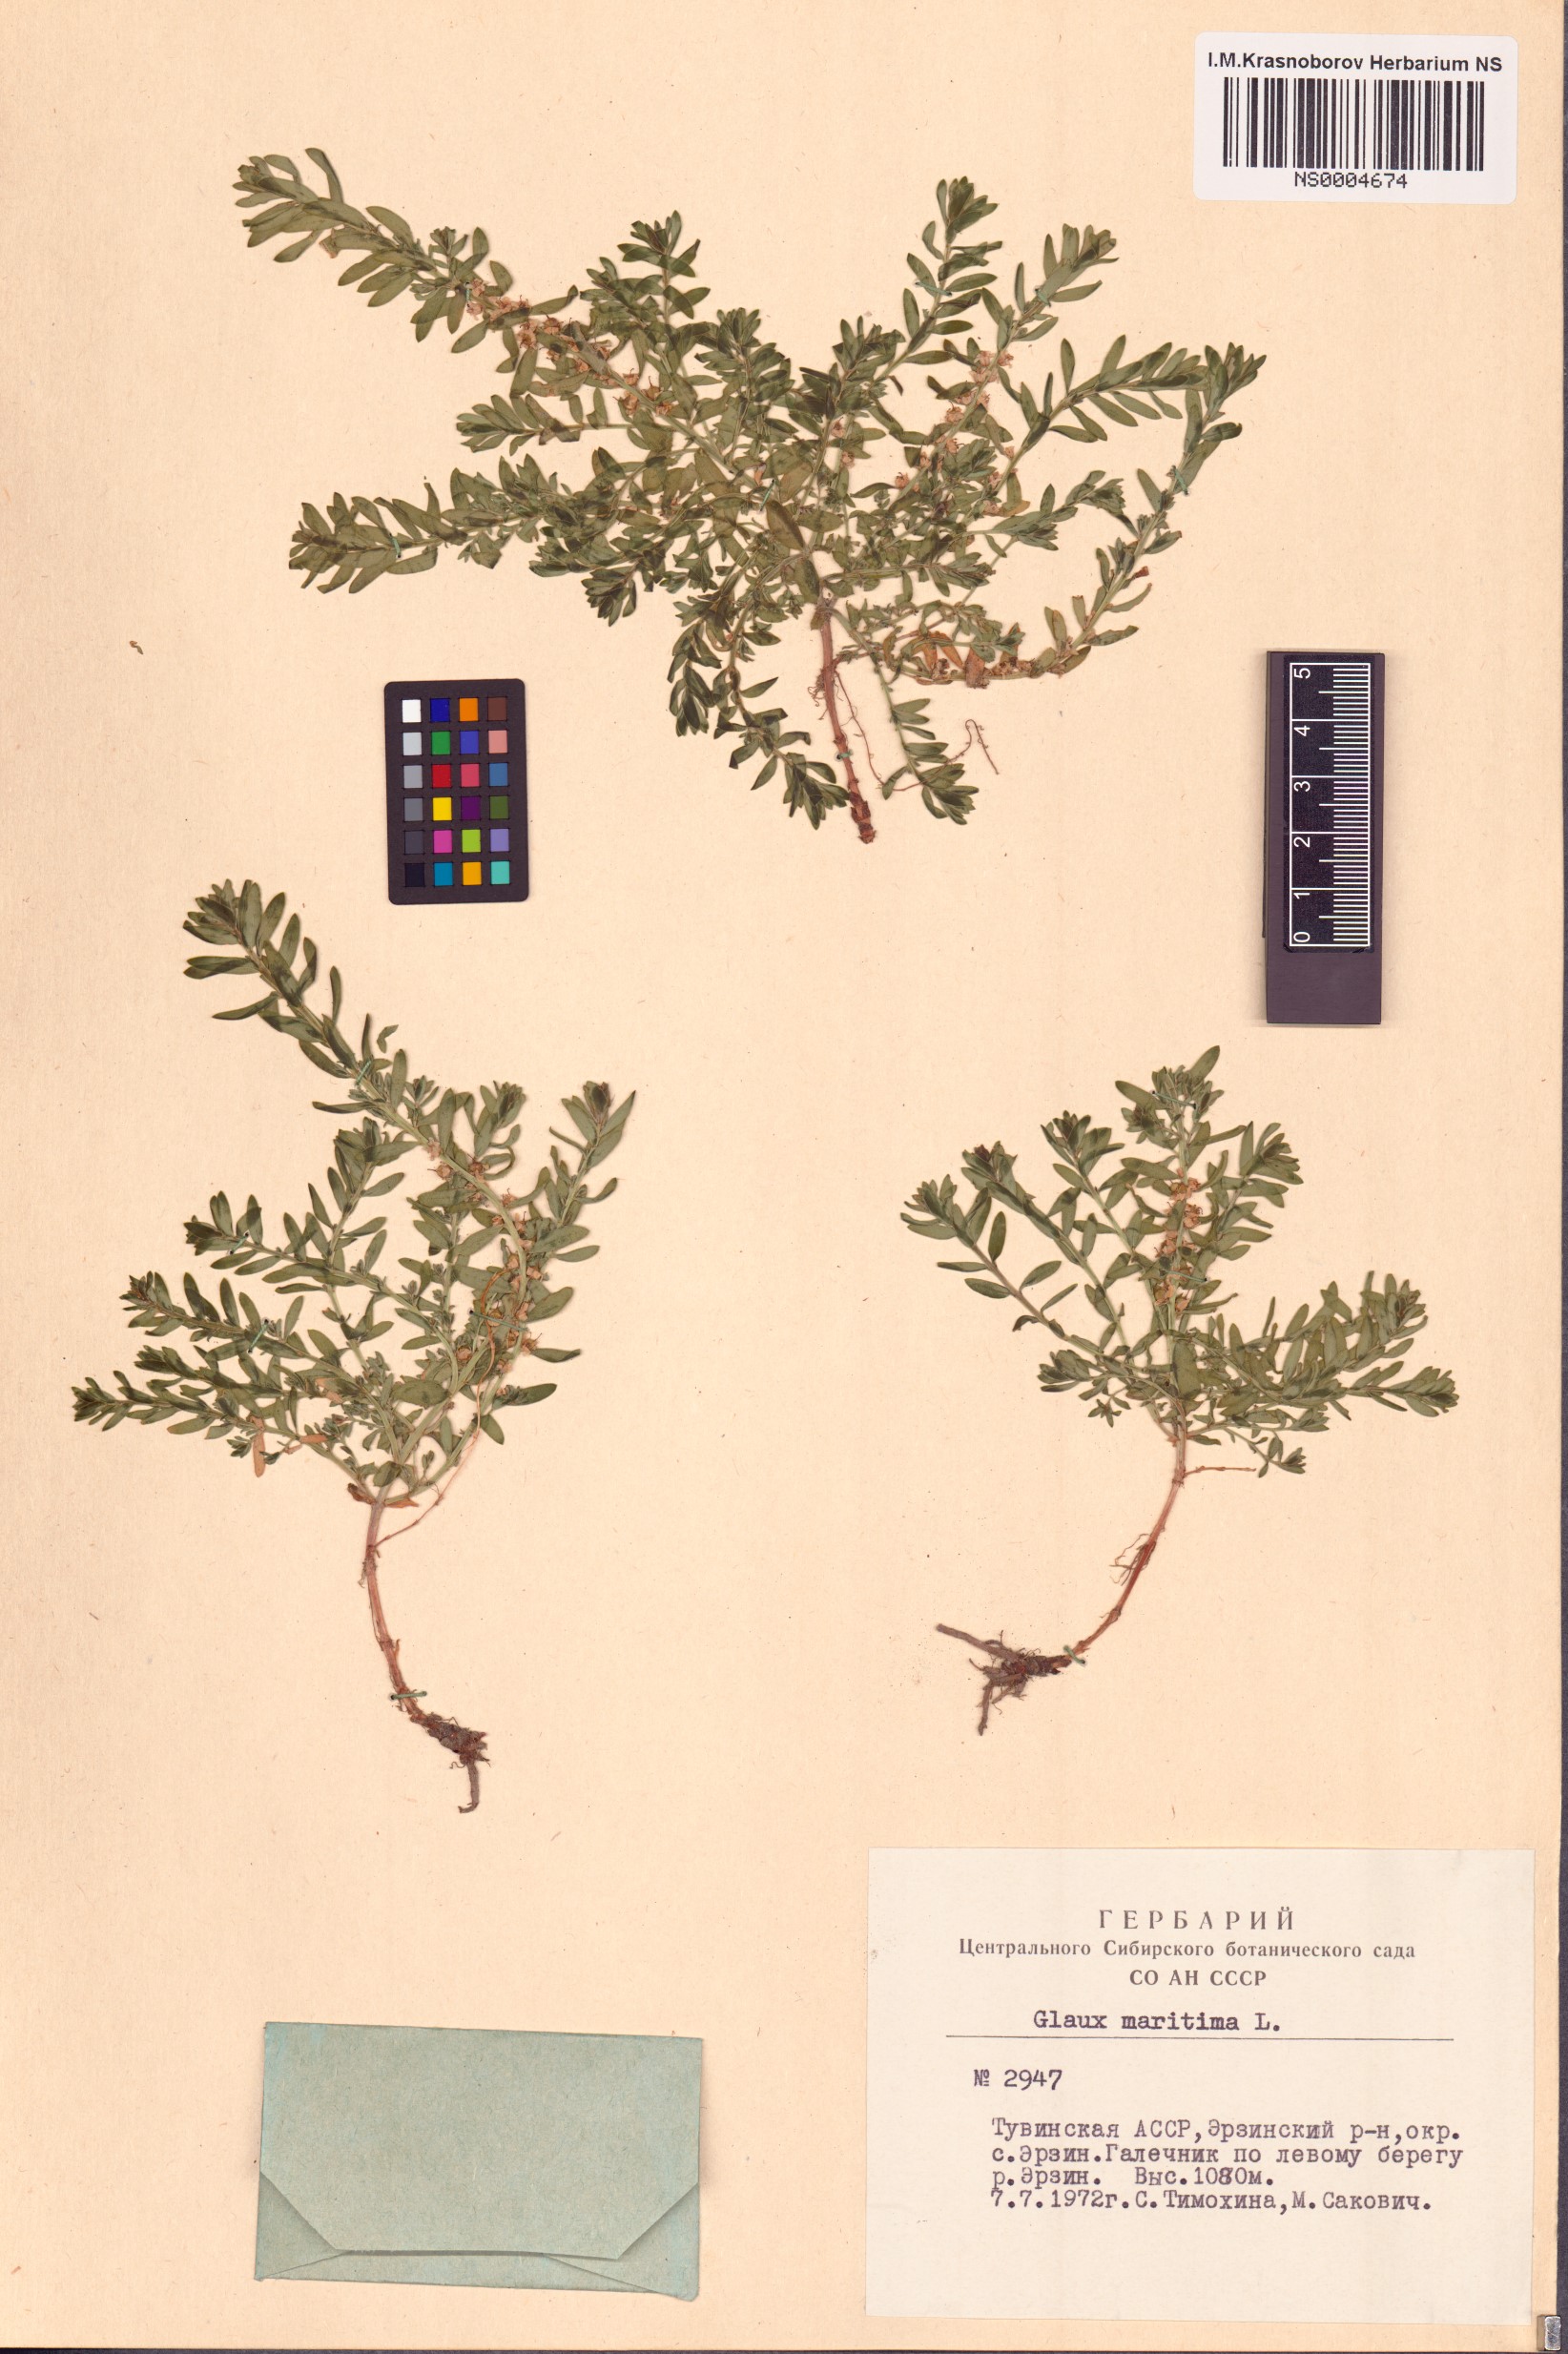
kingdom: Plantae
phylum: Tracheophyta
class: Magnoliopsida
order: Ericales
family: Primulaceae
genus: Lysimachia
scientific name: Lysimachia maritima
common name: Sea milkwort
